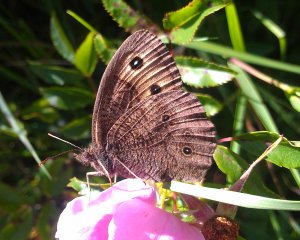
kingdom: Animalia
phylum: Arthropoda
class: Insecta
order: Lepidoptera
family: Nymphalidae
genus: Cercyonis
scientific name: Cercyonis pegala
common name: Common Wood-Nymph
